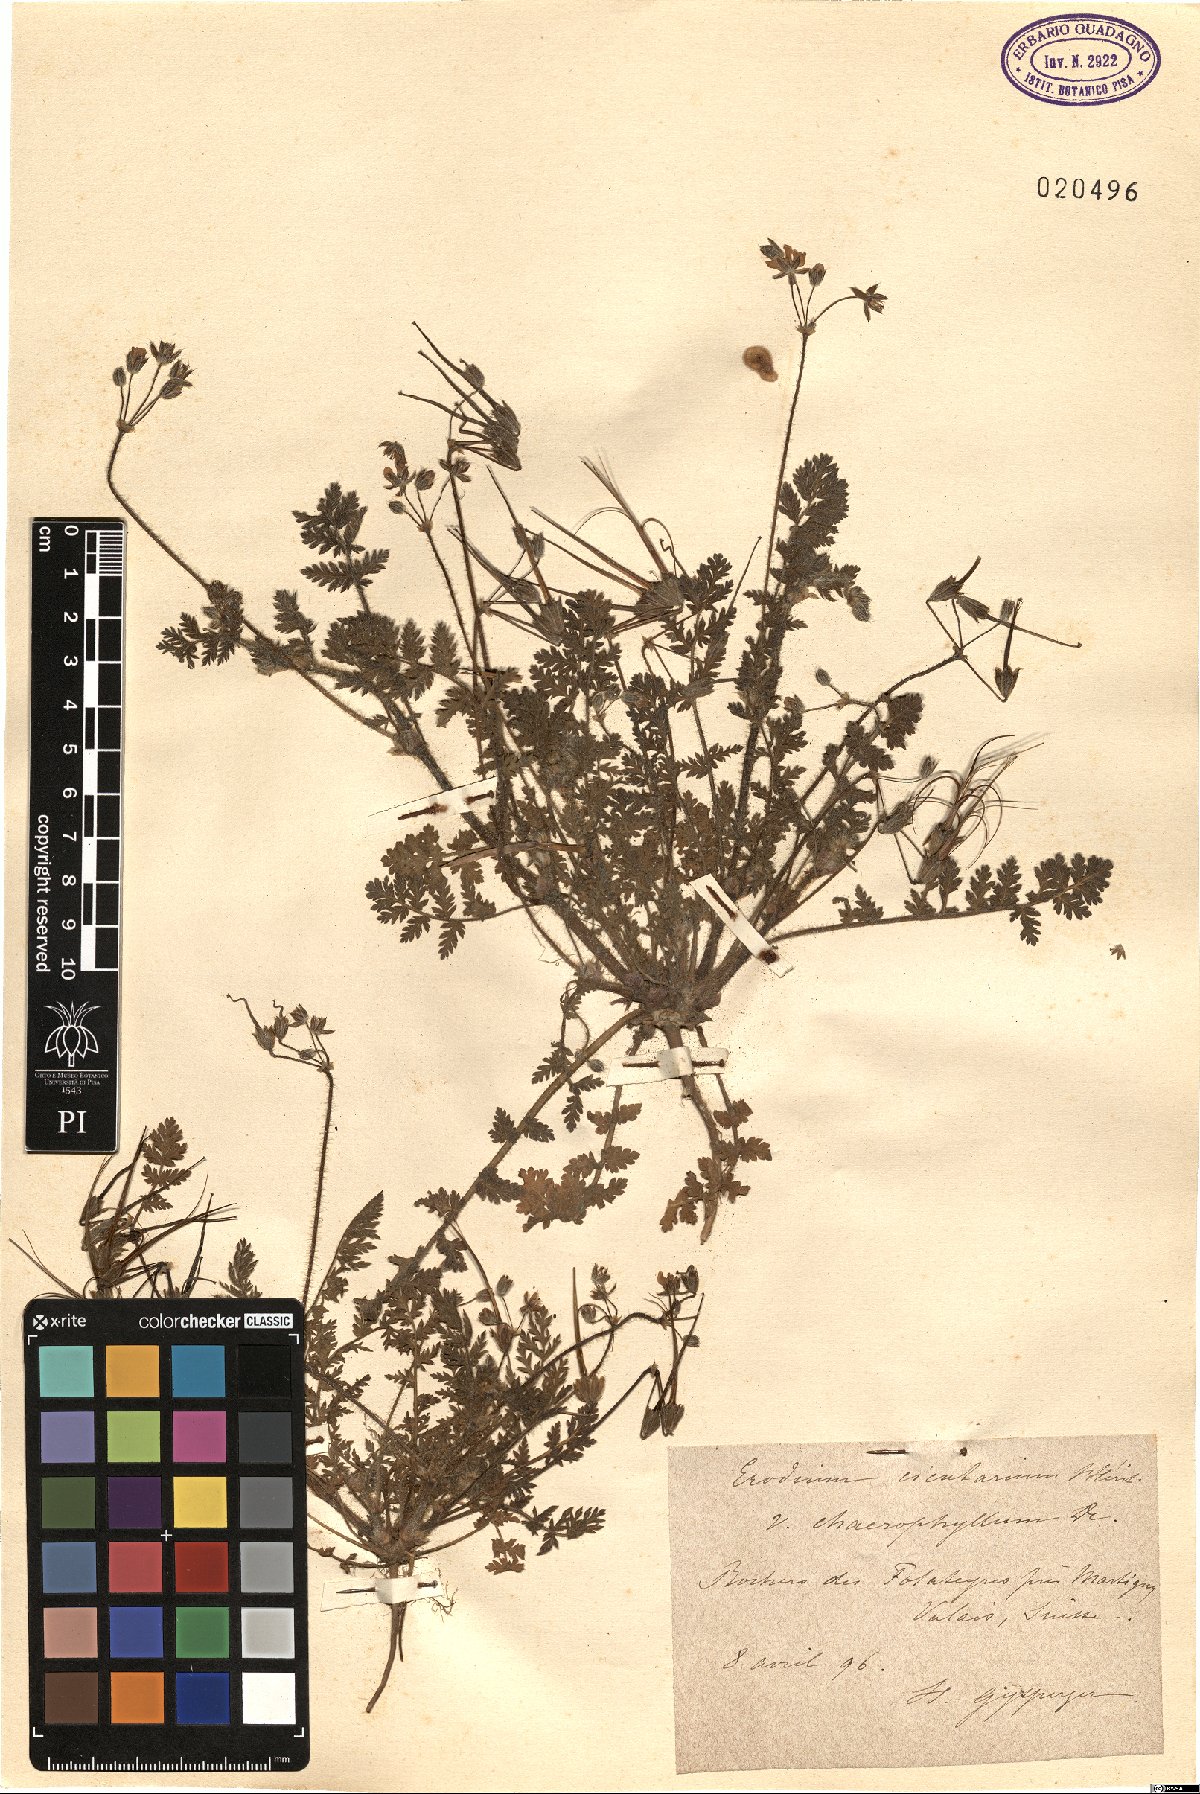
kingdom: Plantae
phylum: Tracheophyta
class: Magnoliopsida
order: Geraniales
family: Geraniaceae
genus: Erodium
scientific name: Erodium cicutarium
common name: Common stork's-bill
